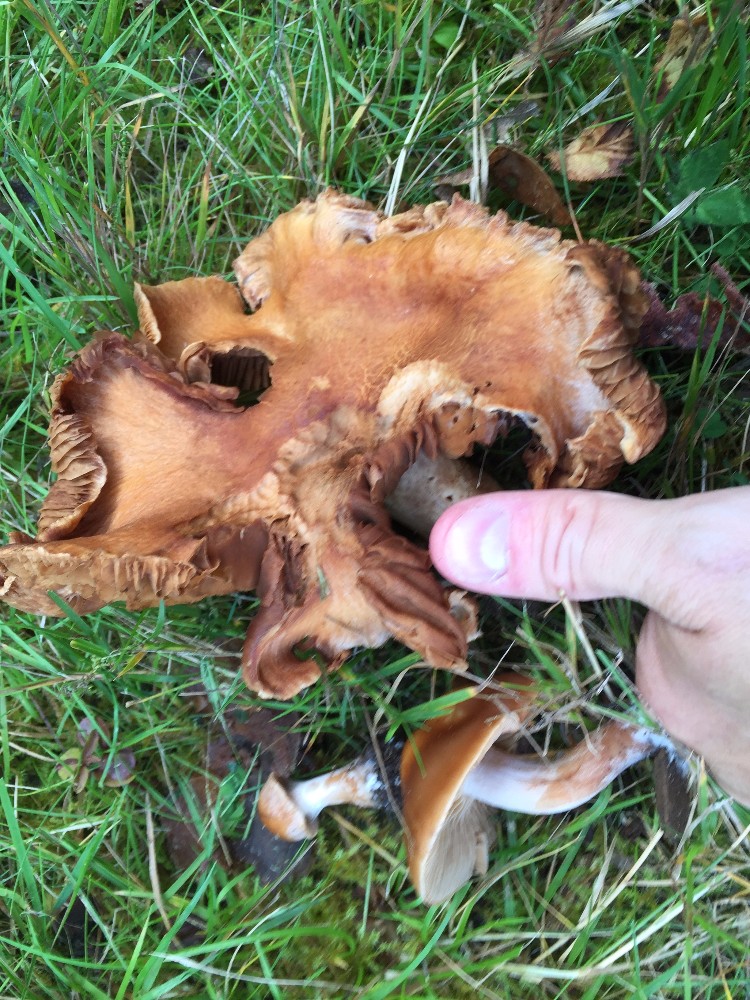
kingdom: Fungi
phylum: Basidiomycota
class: Agaricomycetes
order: Agaricales
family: Cortinariaceae
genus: Cortinarius
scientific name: Cortinarius
